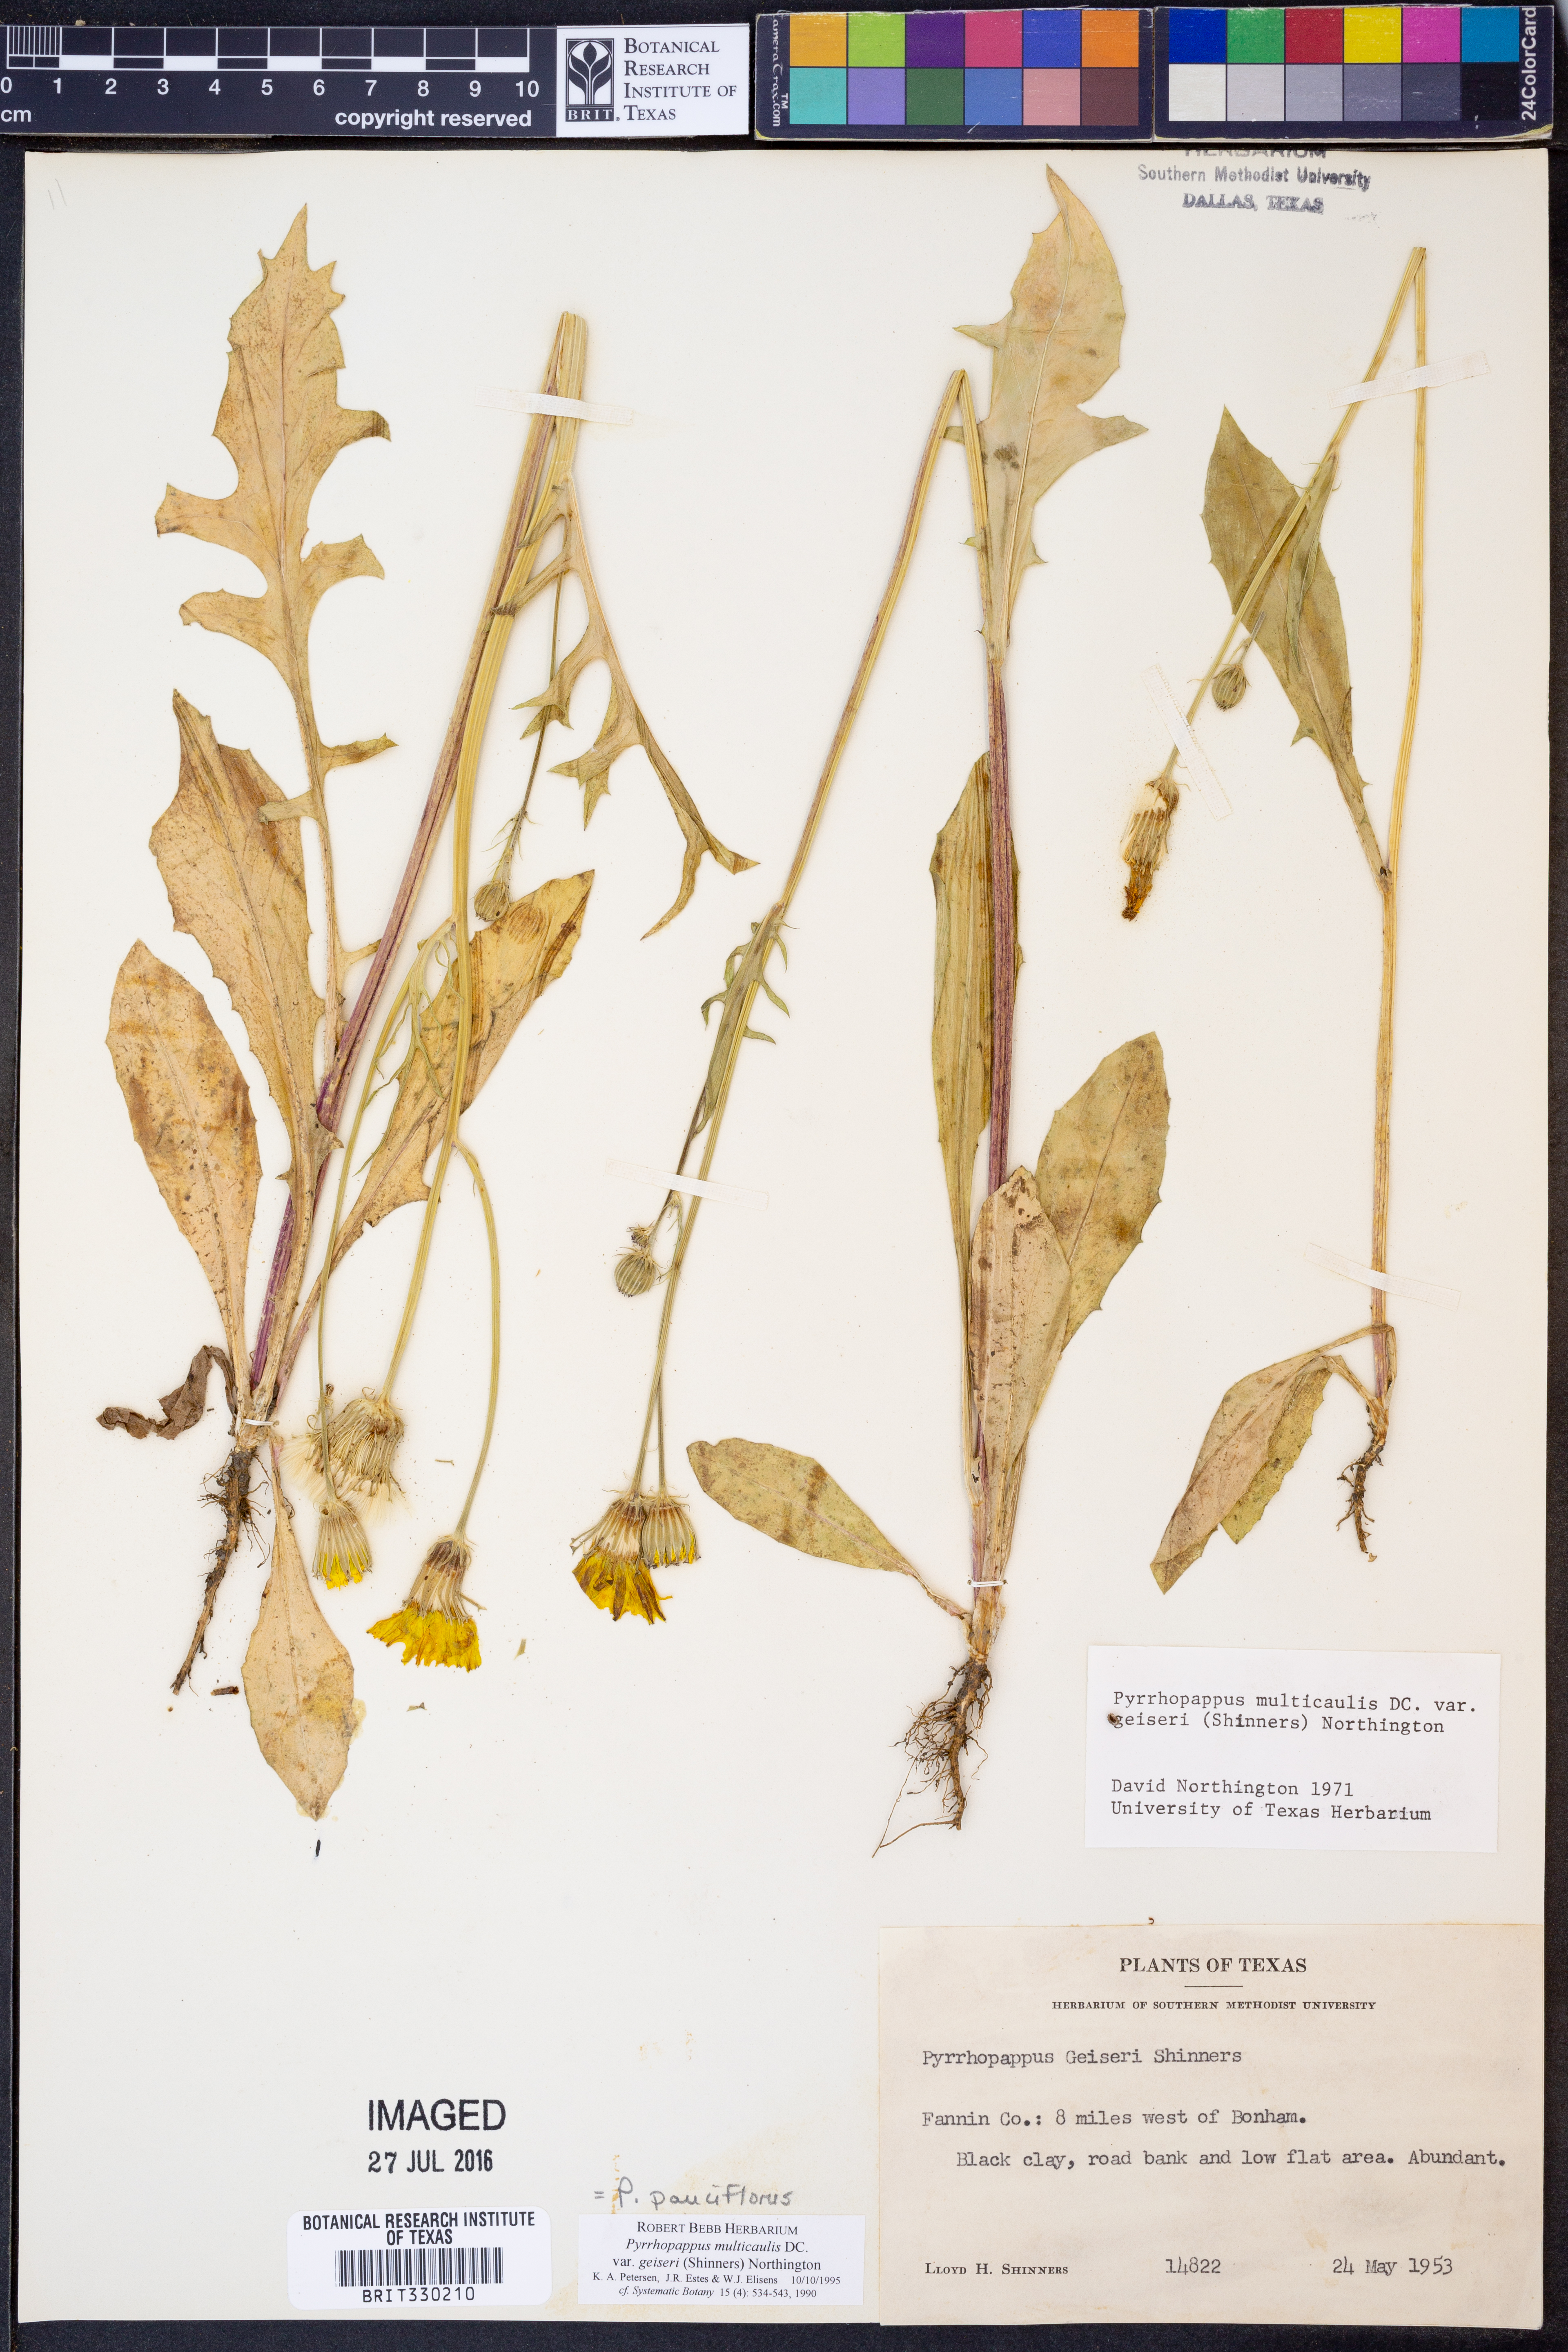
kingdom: Plantae
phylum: Tracheophyta
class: Magnoliopsida
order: Asterales
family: Asteraceae
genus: Pyrrhopappus
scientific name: Pyrrhopappus pauciflorus
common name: Texas false dandelion
